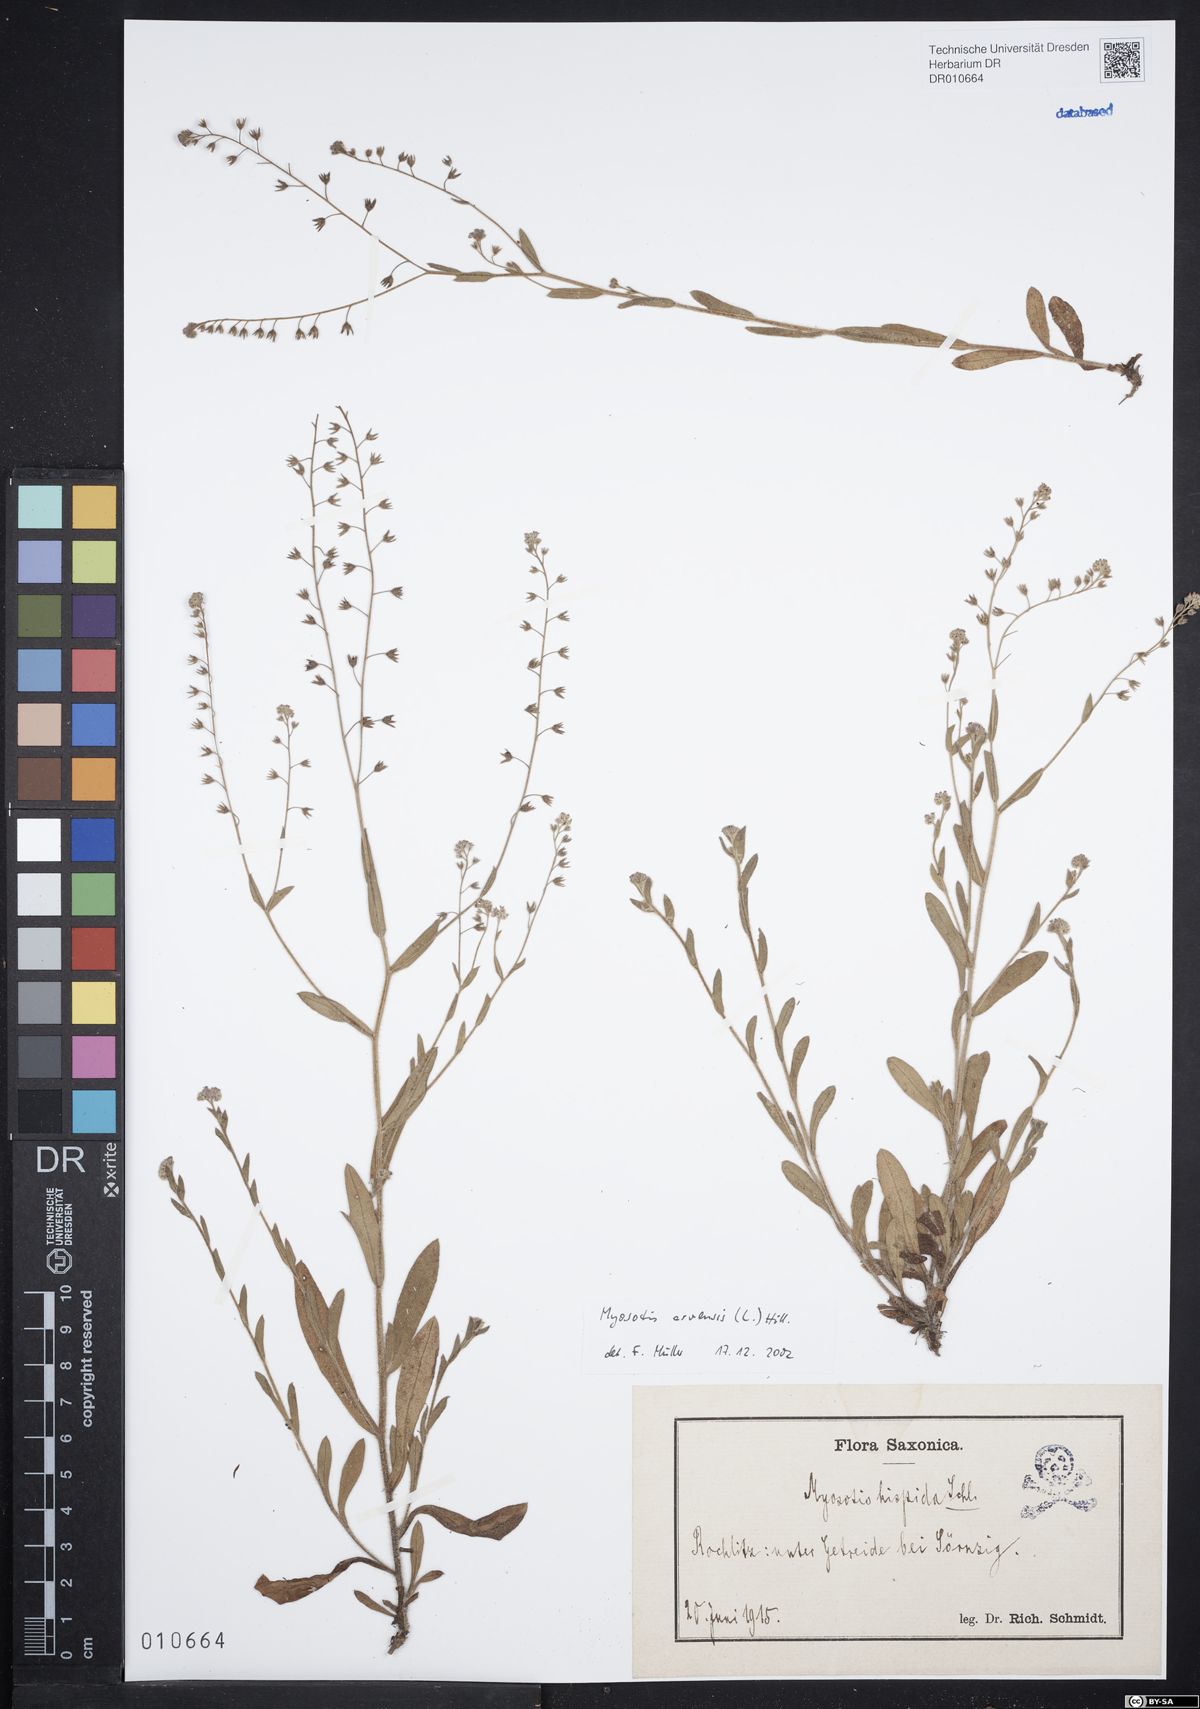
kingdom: Plantae
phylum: Tracheophyta
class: Magnoliopsida
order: Boraginales
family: Boraginaceae
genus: Myosotis
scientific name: Myosotis arvensis
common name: Field forget-me-not
